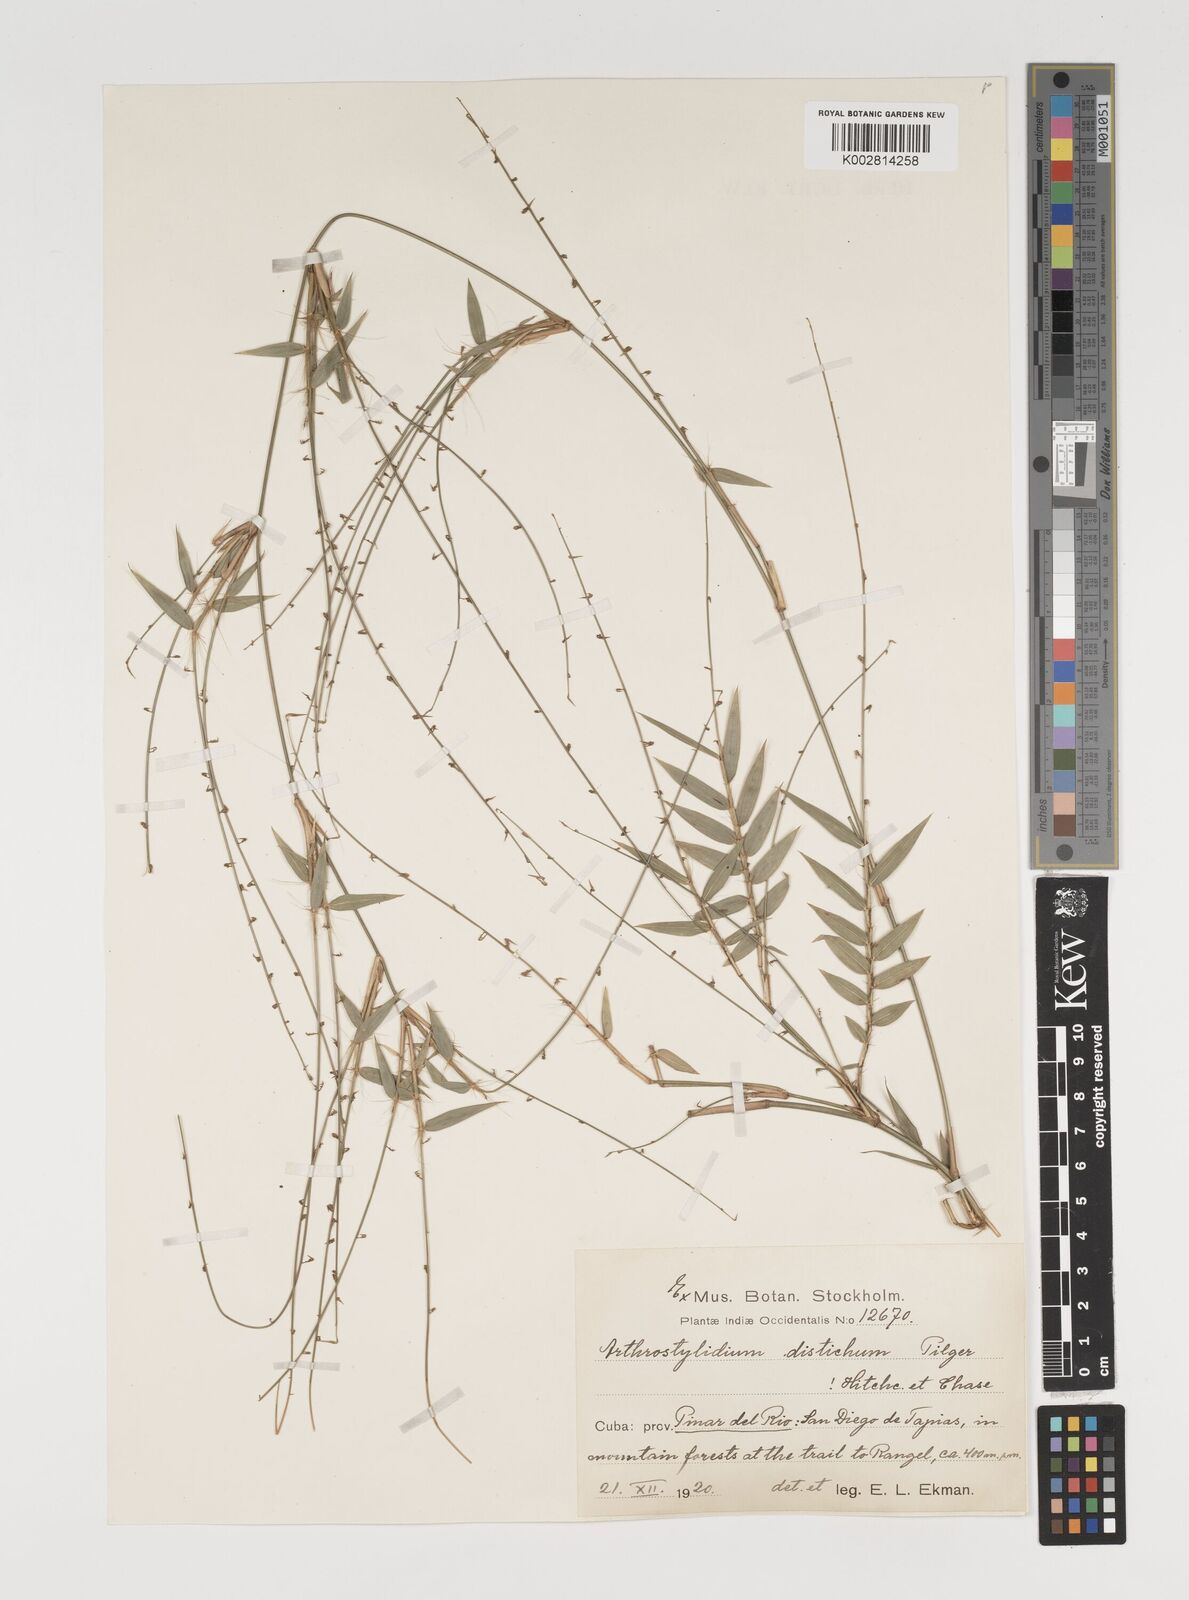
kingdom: Plantae
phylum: Tracheophyta
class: Liliopsida
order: Poales
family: Poaceae
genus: Arthrostylidium
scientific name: Arthrostylidium distichum
